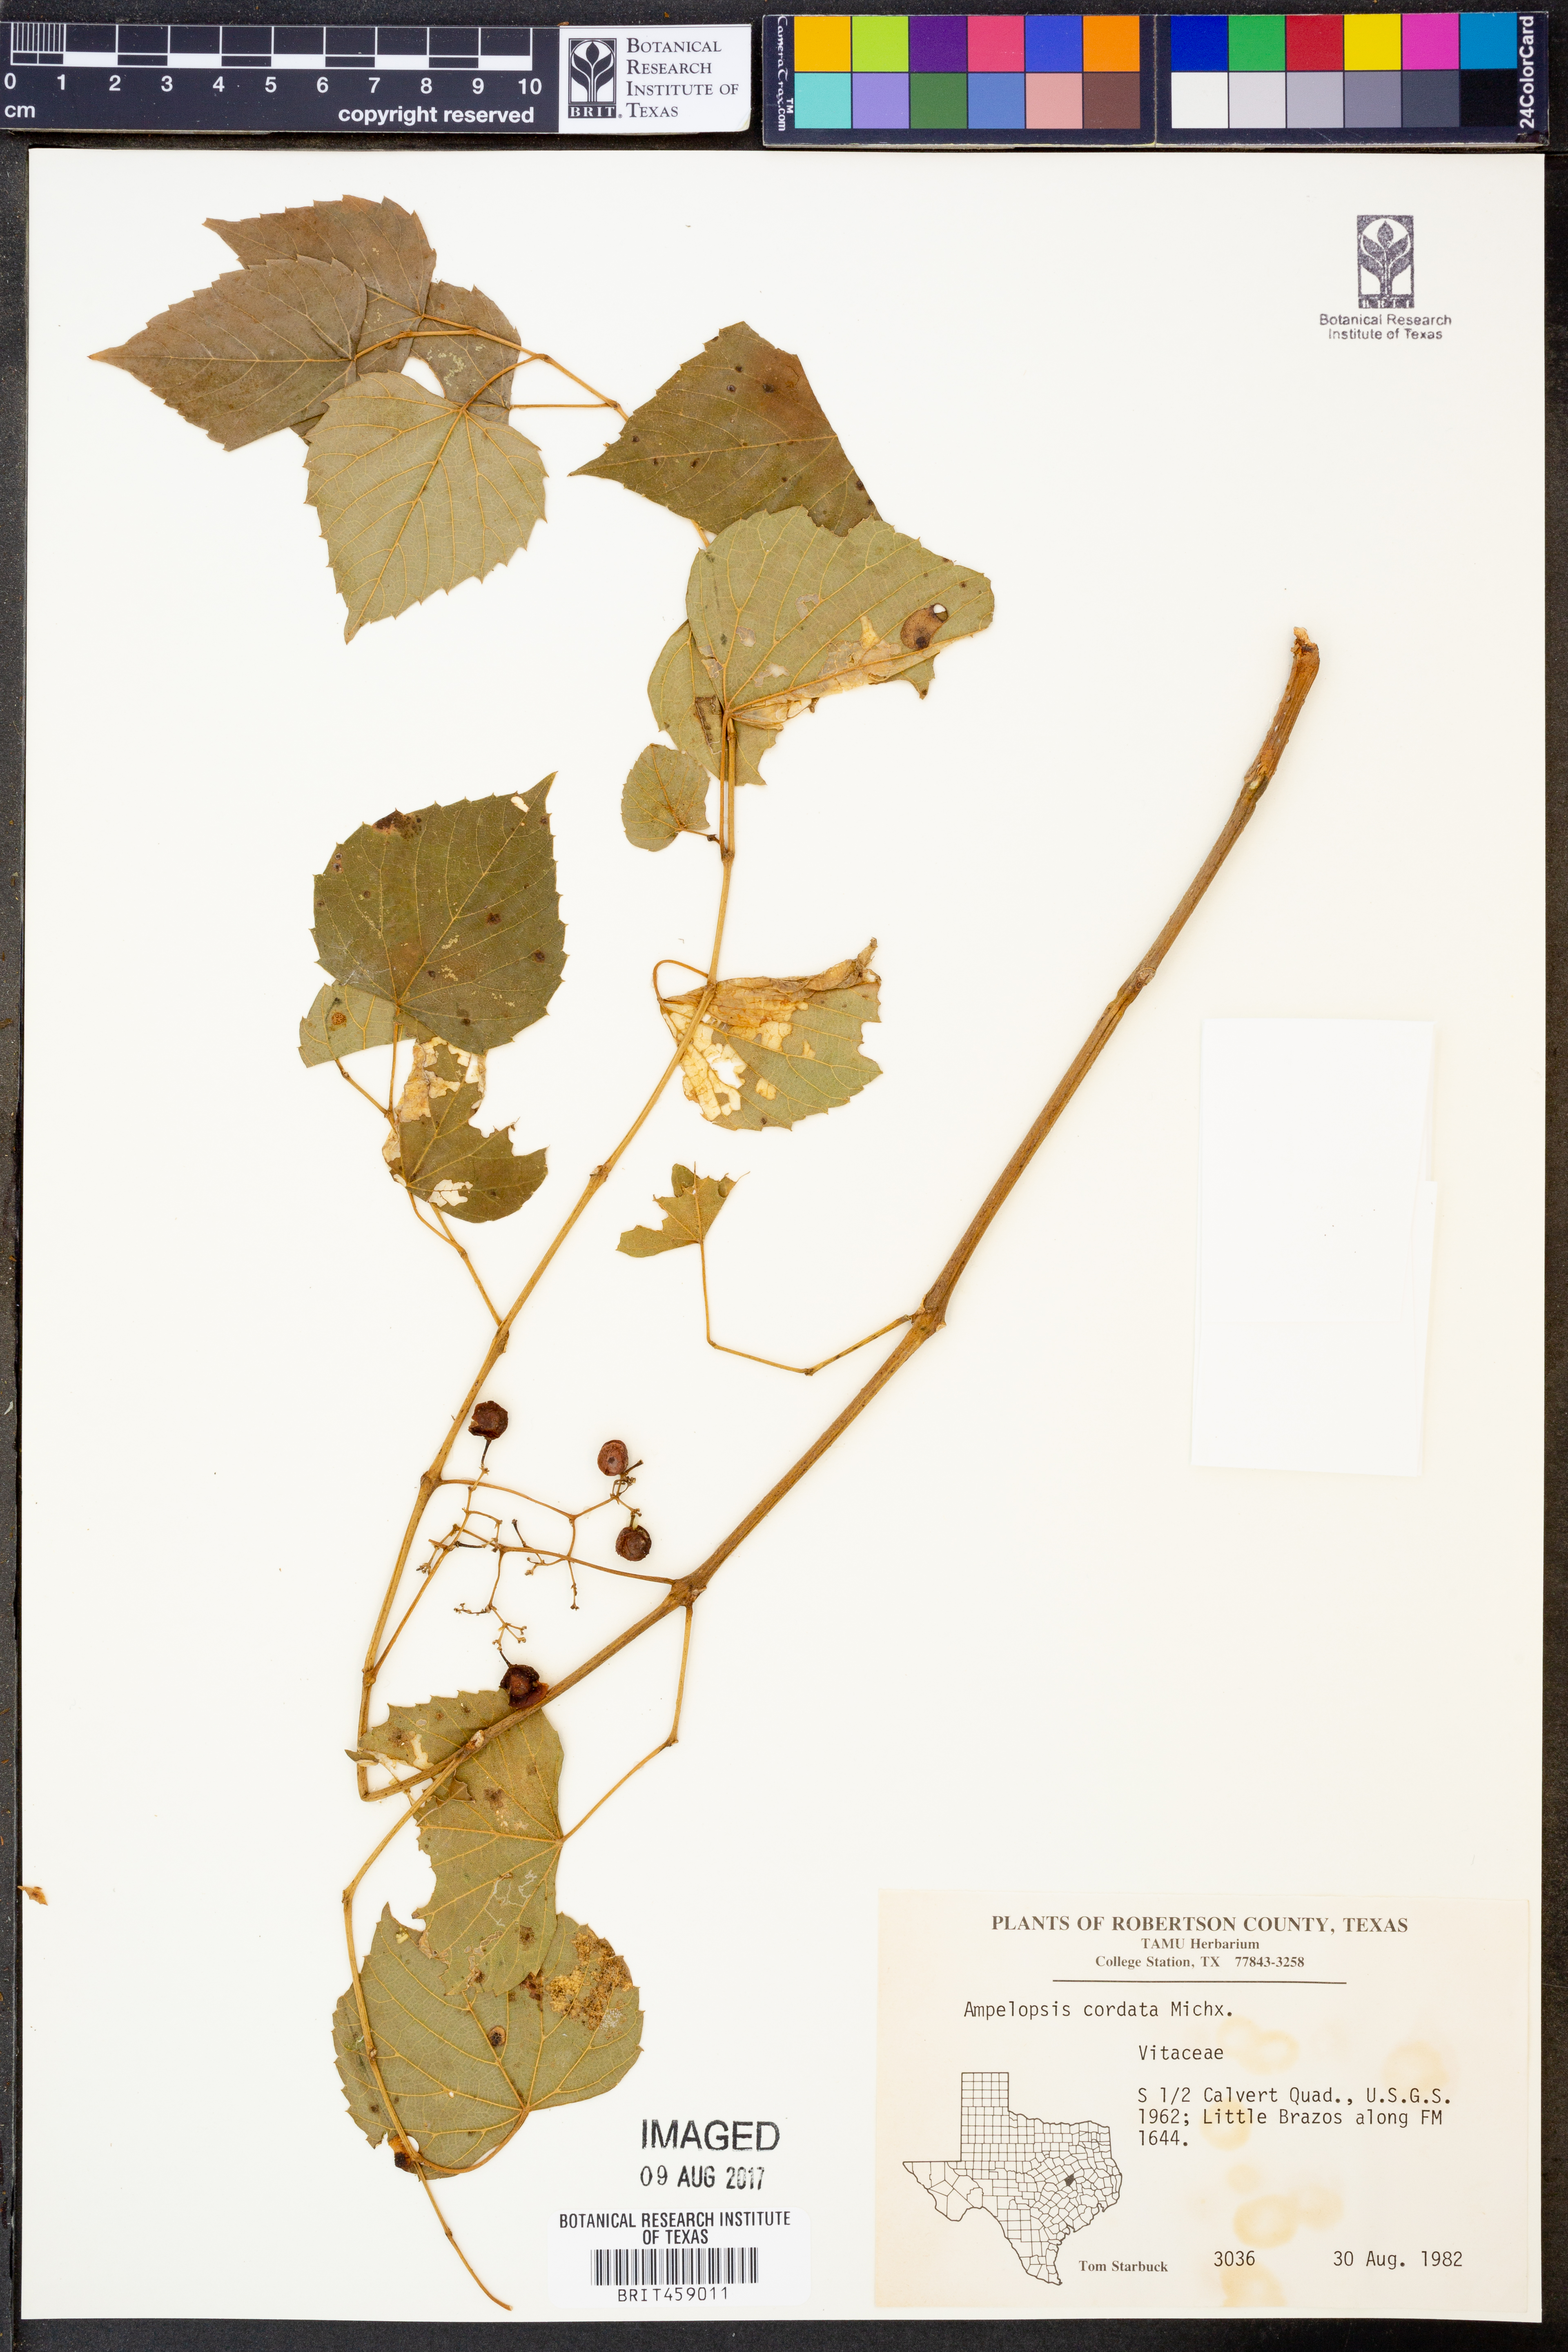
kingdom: Plantae
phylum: Tracheophyta
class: Magnoliopsida
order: Vitales
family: Vitaceae
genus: Ampelopsis
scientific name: Ampelopsis cordata
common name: Heart-leaf ampelopsis
